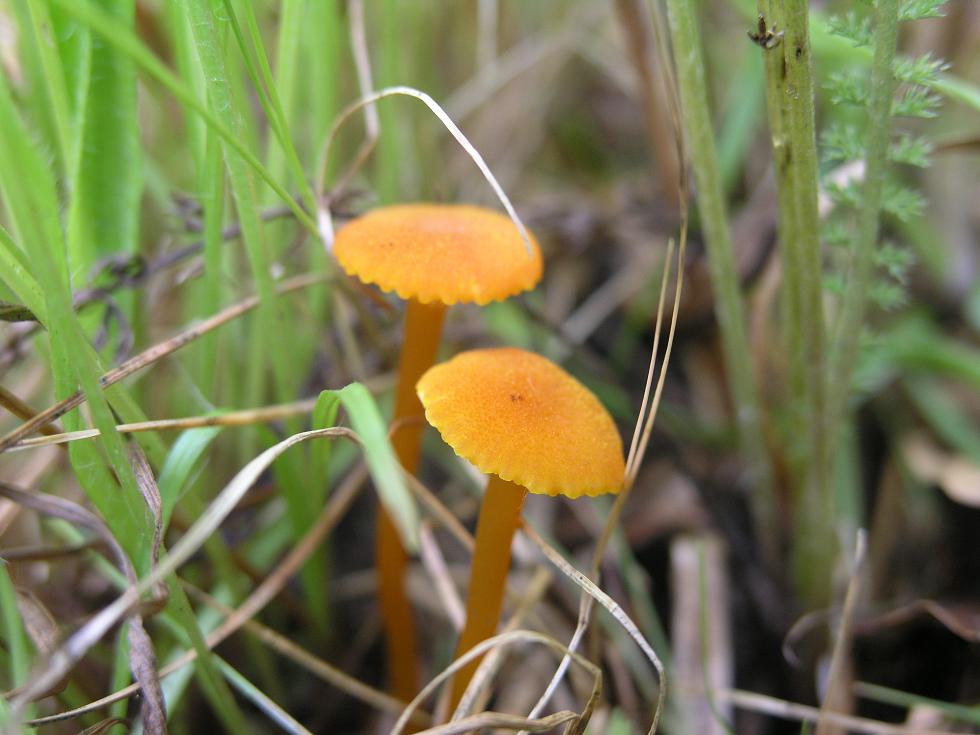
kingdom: Fungi
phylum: Basidiomycota
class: Agaricomycetes
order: Agaricales
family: Hygrophoraceae
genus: Hygrocybe
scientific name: Hygrocybe cantharellus
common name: kantarel-vokshat
